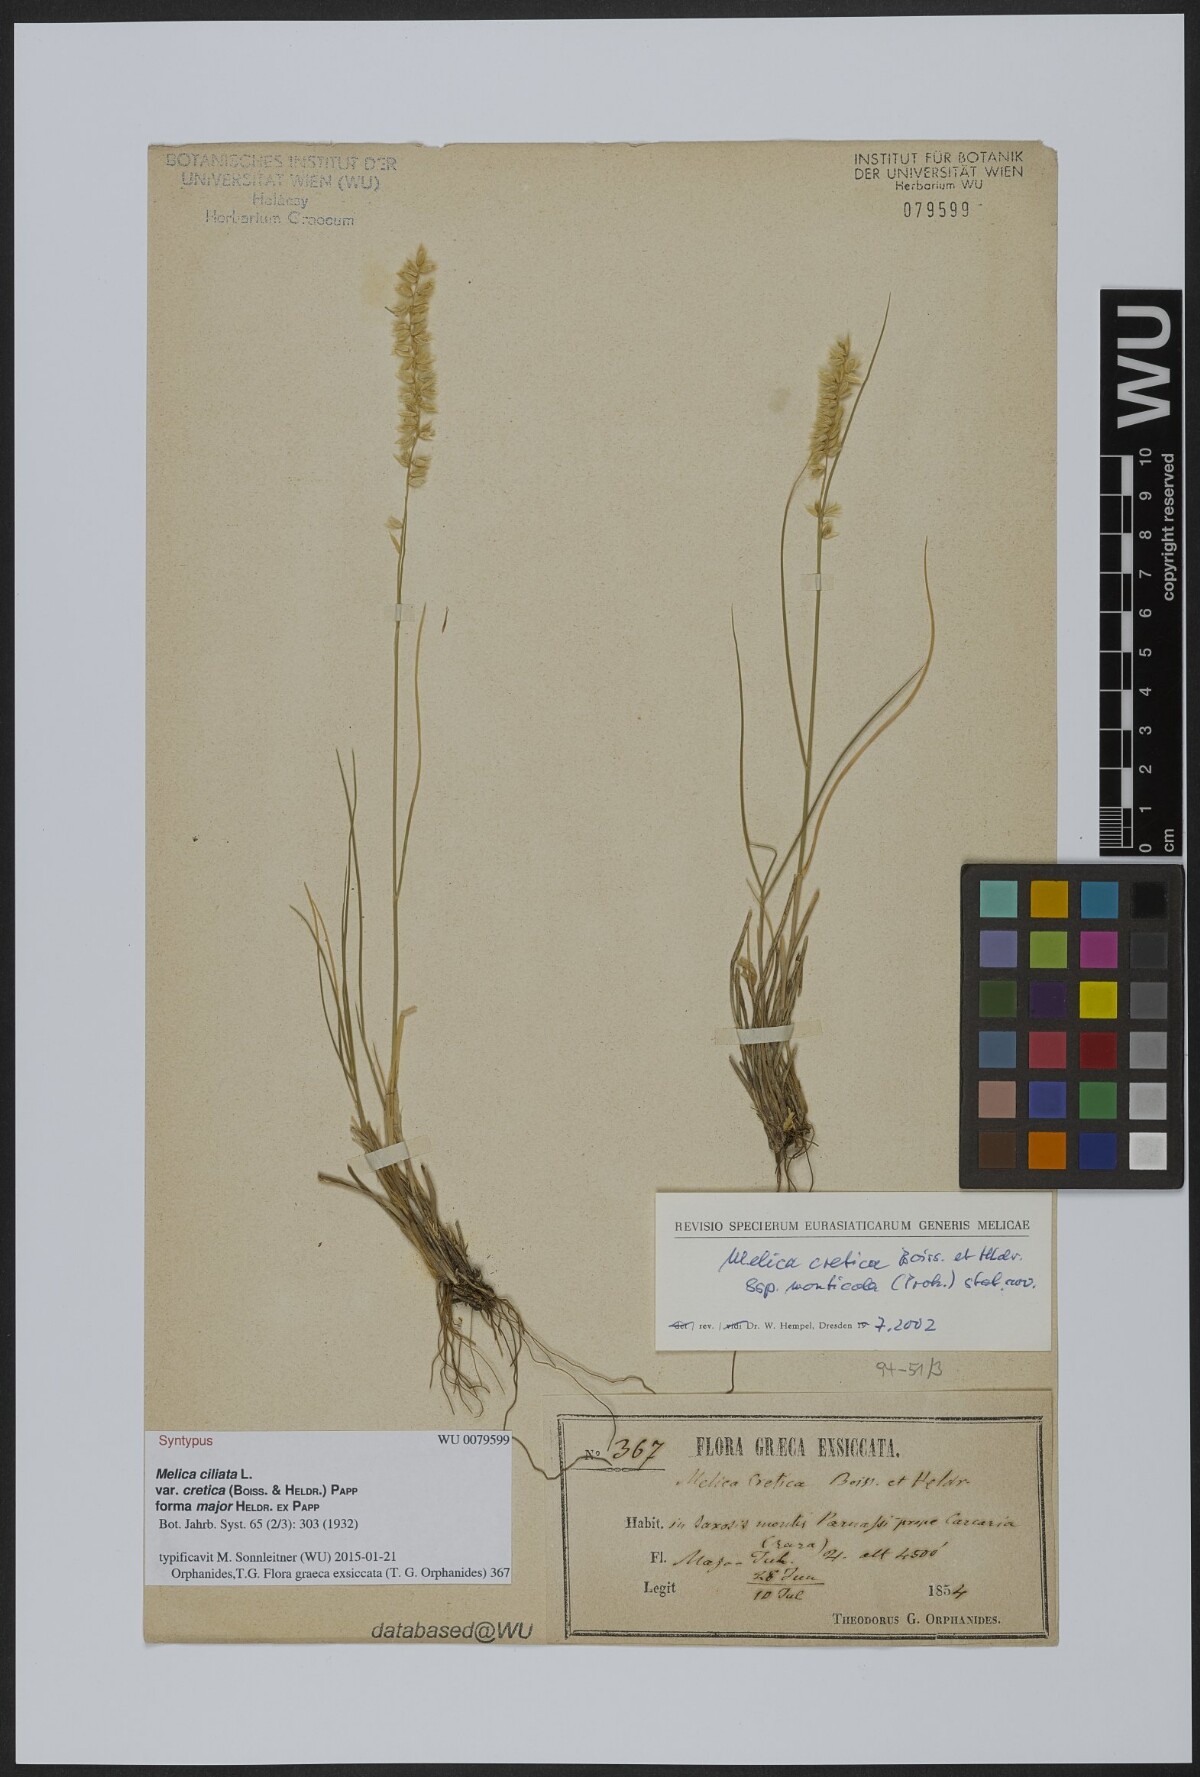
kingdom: Plantae
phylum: Tracheophyta
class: Liliopsida
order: Poales
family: Poaceae
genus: Melica
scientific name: Melica ciliata
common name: Hairy melicgrass
